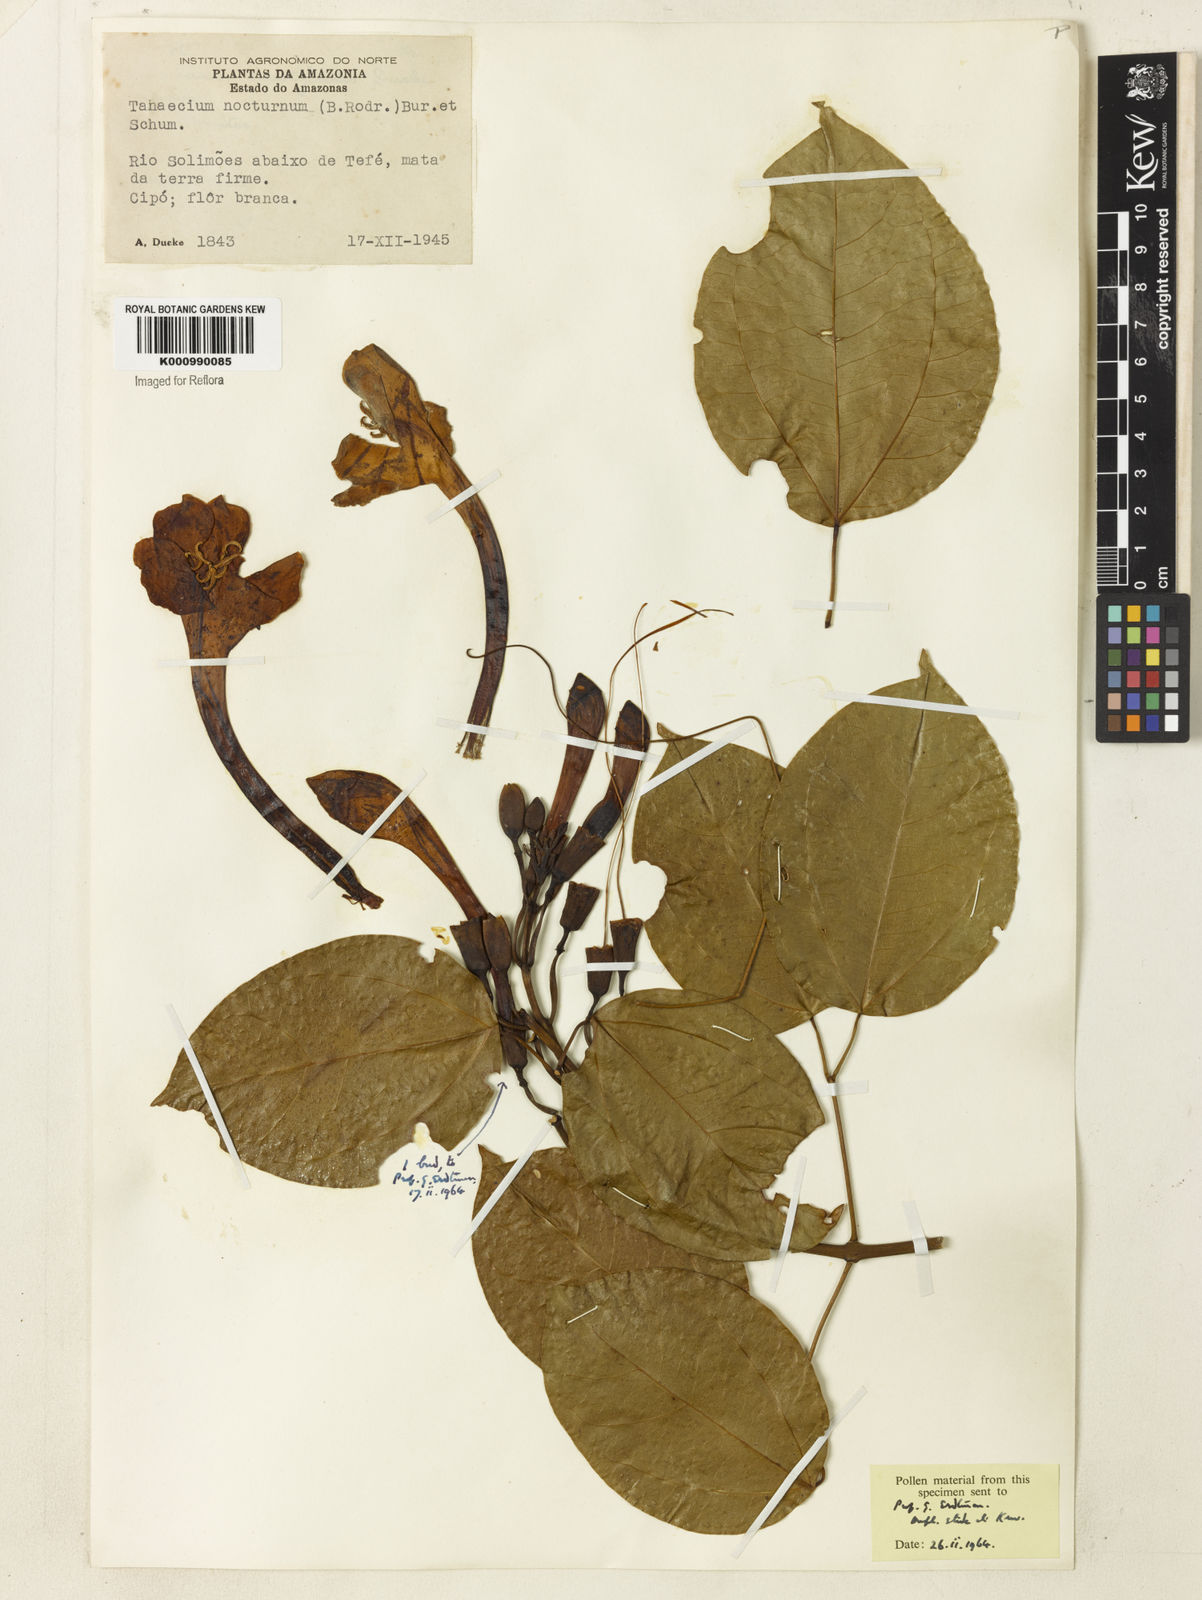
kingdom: Plantae
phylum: Tracheophyta
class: Magnoliopsida
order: Lamiales
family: Bignoniaceae
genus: Bignonia
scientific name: Bignonia nocturna
